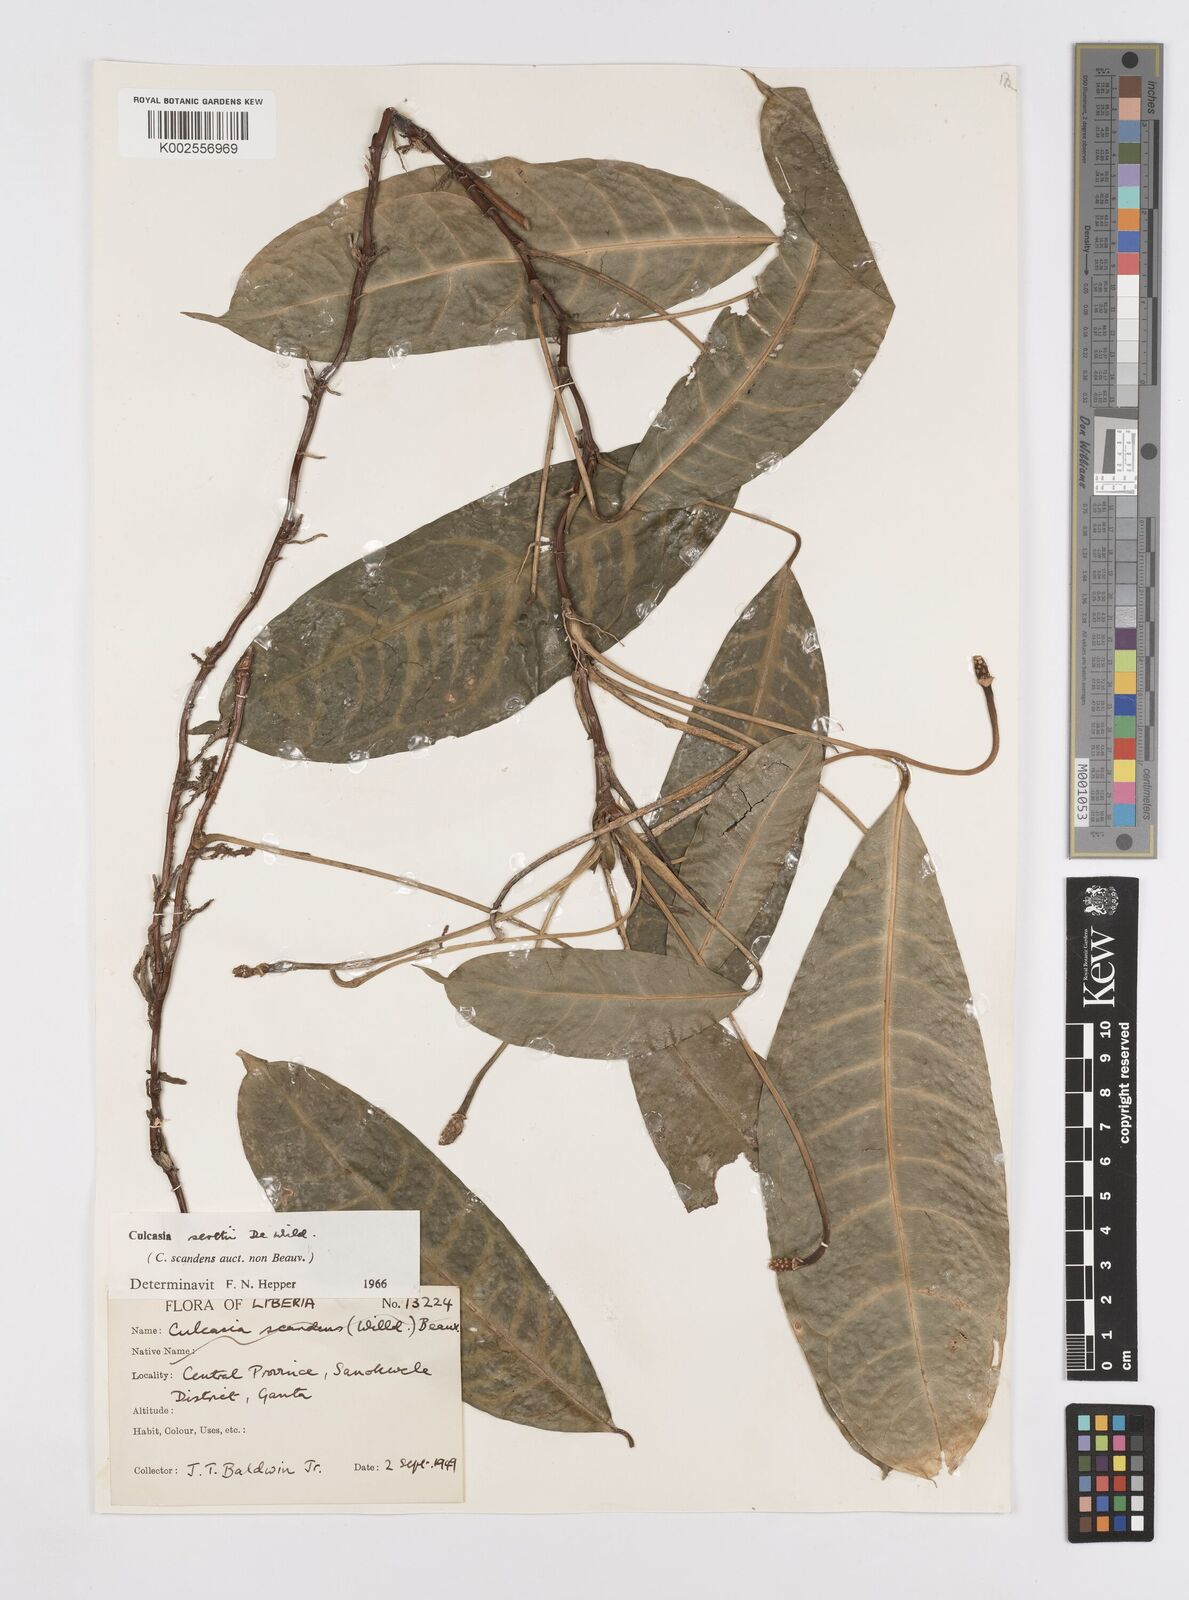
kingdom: Plantae
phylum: Tracheophyta
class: Liliopsida
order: Alismatales
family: Araceae
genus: Culcasia
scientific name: Culcasia seretii
